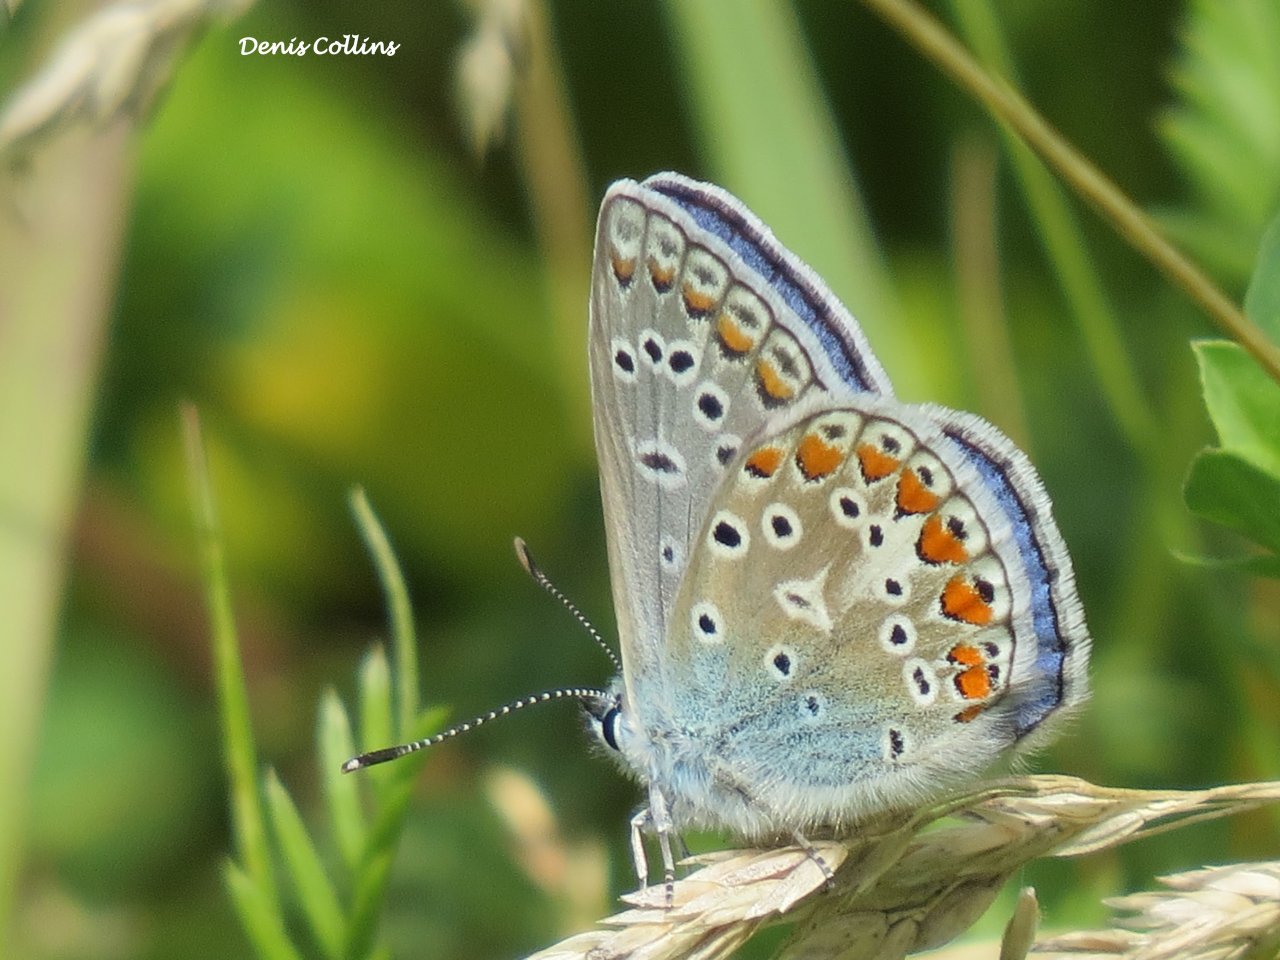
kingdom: Animalia
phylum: Arthropoda
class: Insecta
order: Lepidoptera
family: Lycaenidae
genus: Polyommatus
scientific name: Polyommatus icarus
